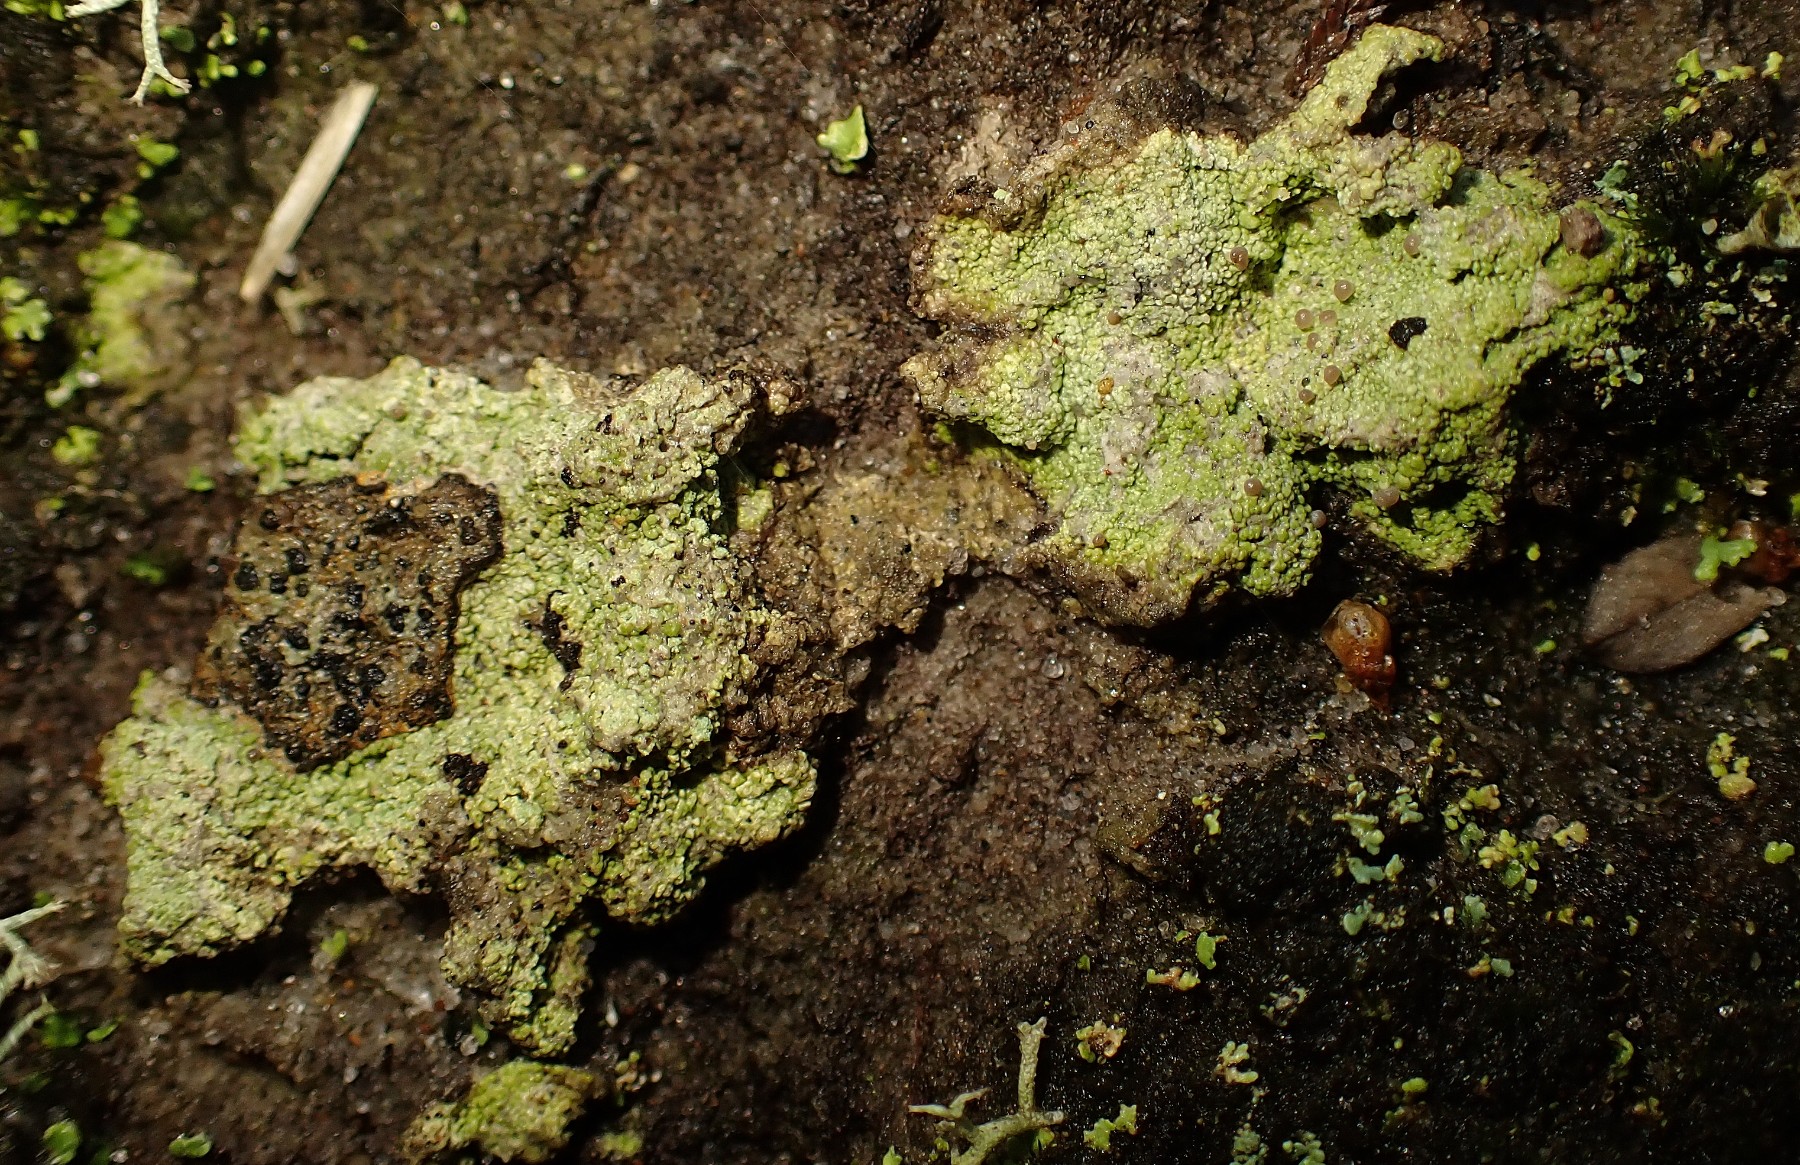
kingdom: Fungi
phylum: Ascomycota
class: Lecanoromycetes
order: Baeomycetales
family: Baeomycetaceae
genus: Baeomyces
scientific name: Baeomyces rufus
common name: rødbrun svampelav
